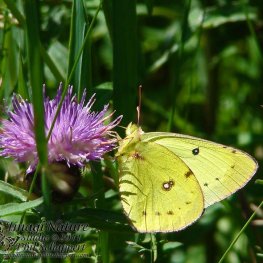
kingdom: Animalia
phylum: Arthropoda
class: Insecta
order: Lepidoptera
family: Pieridae
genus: Colias
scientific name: Colias philodice
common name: Clouded Sulphur
